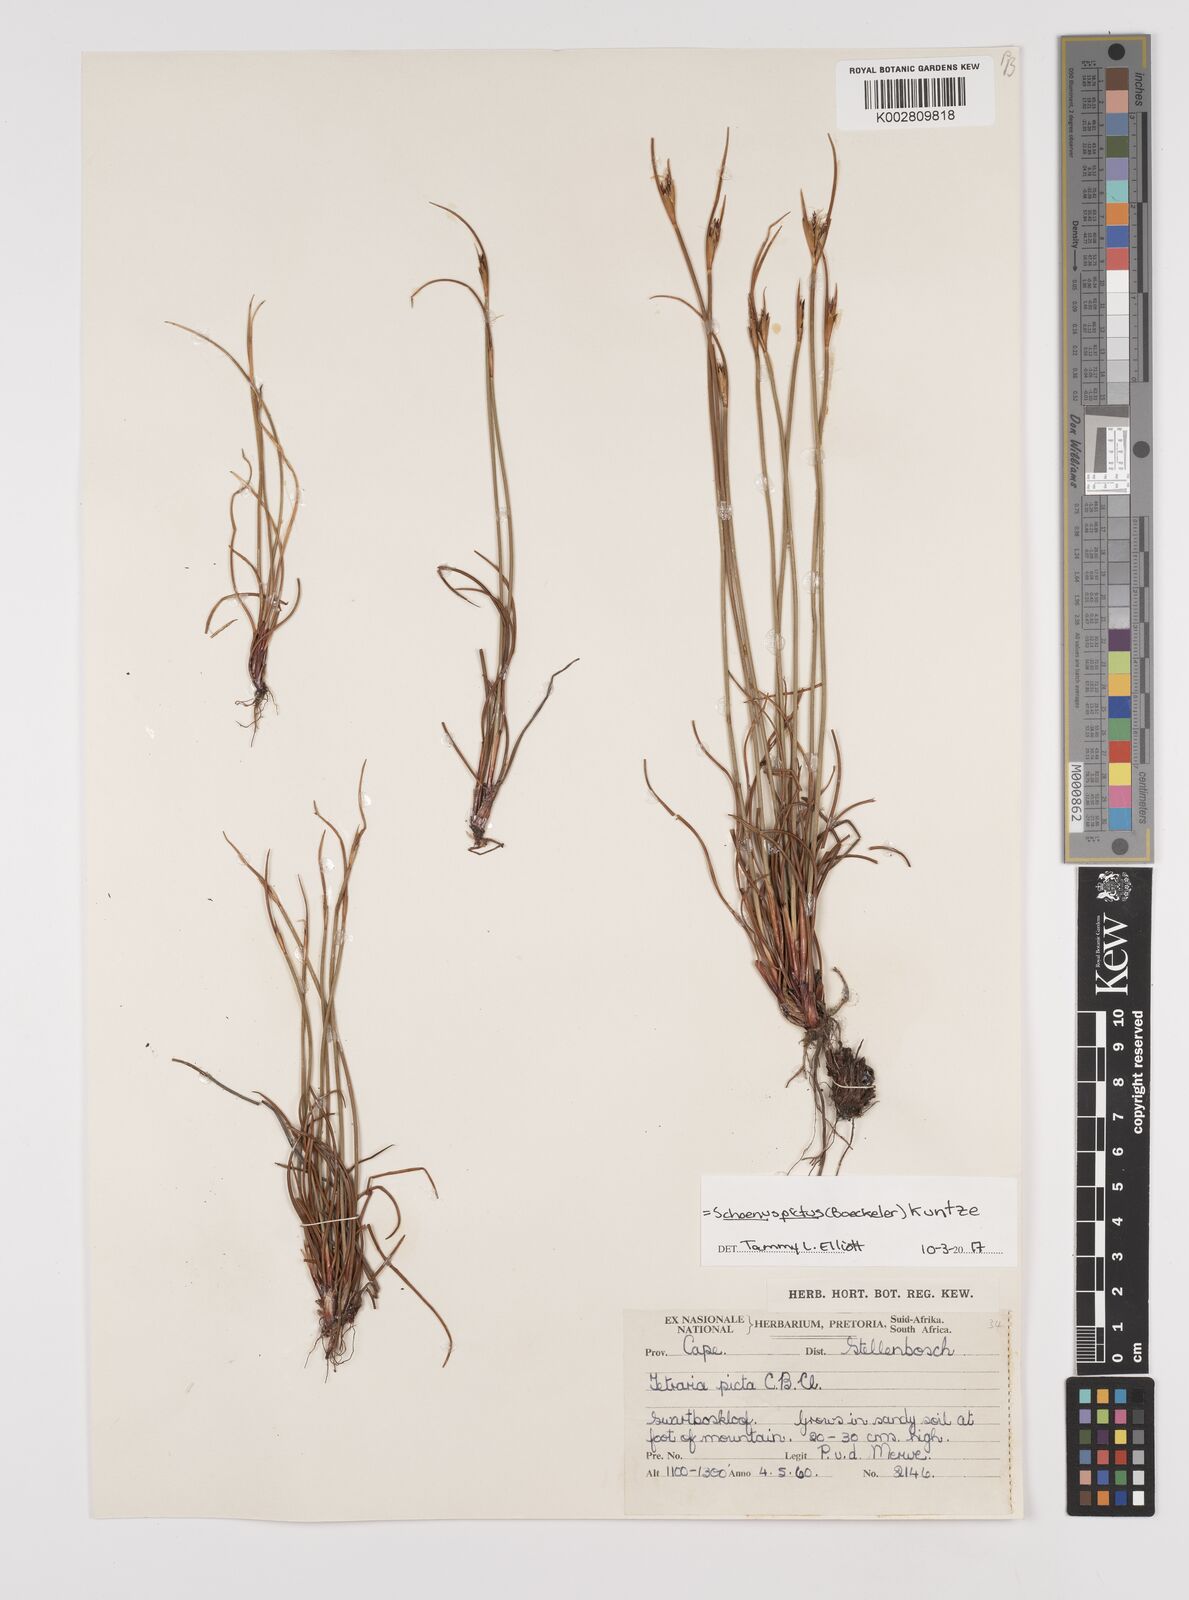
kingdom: Plantae
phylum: Tracheophyta
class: Liliopsida
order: Poales
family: Cyperaceae
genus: Schoenus
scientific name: Schoenus pictus
